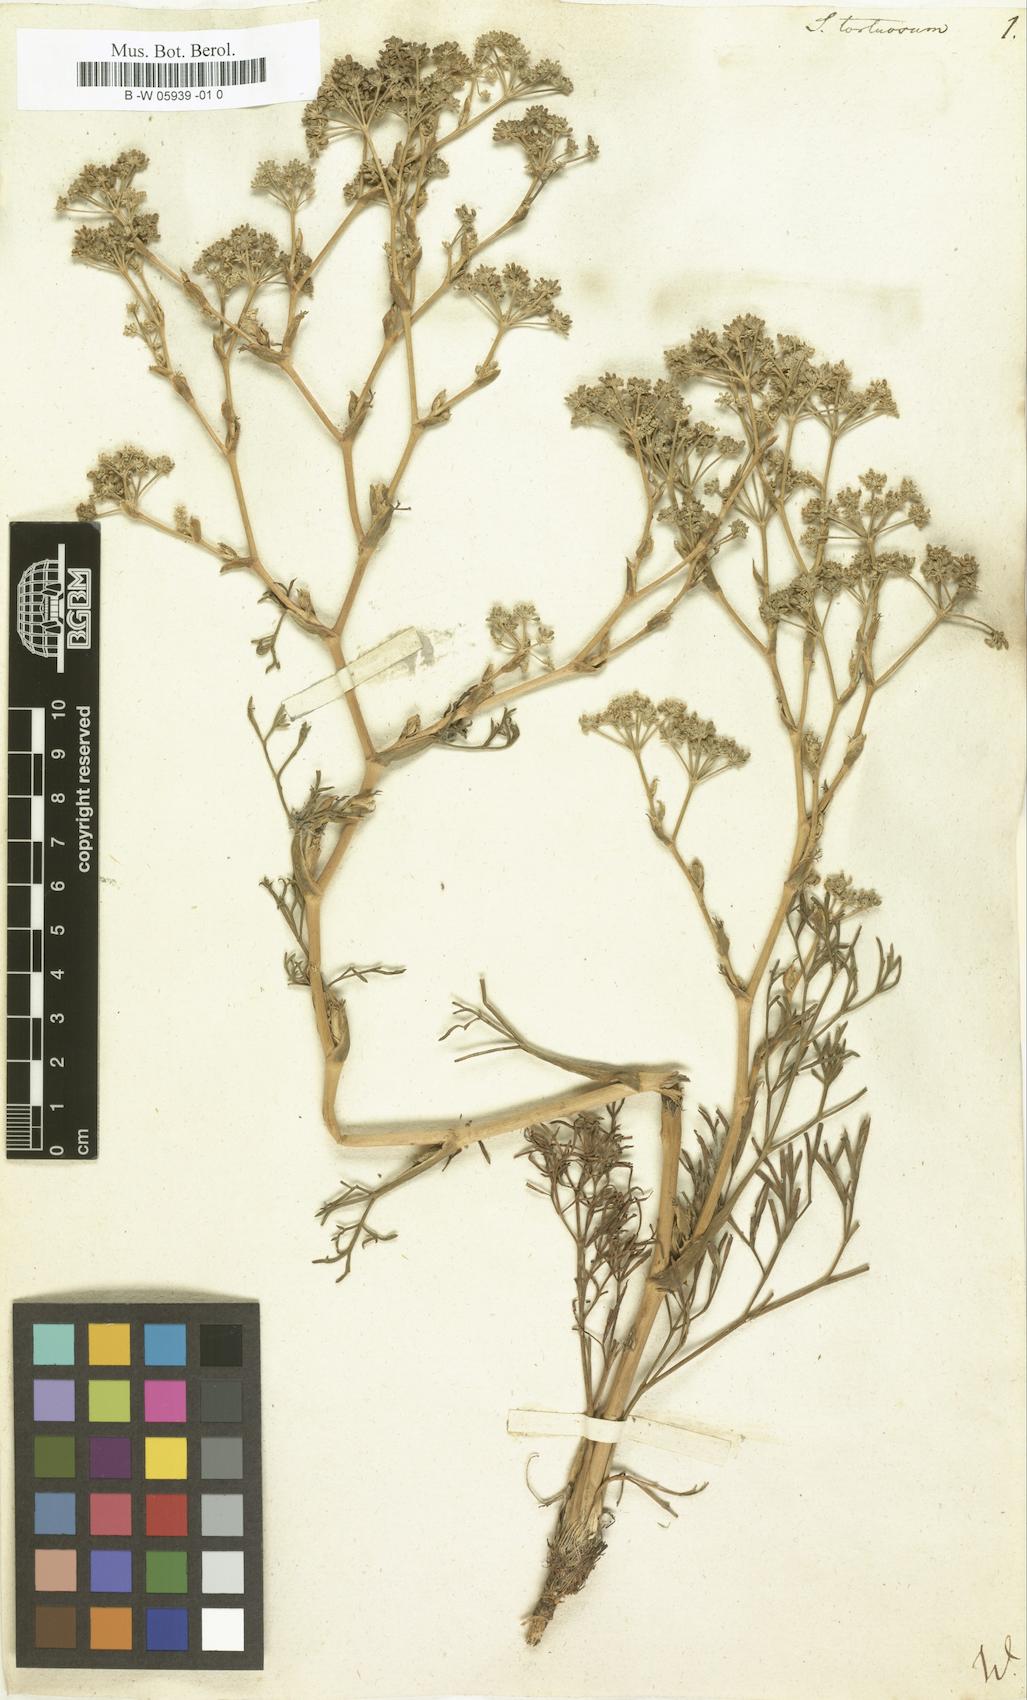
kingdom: Plantae
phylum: Tracheophyta
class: Magnoliopsida
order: Apiales
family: Apiaceae
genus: Seseli
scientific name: Seseli tortuosum
